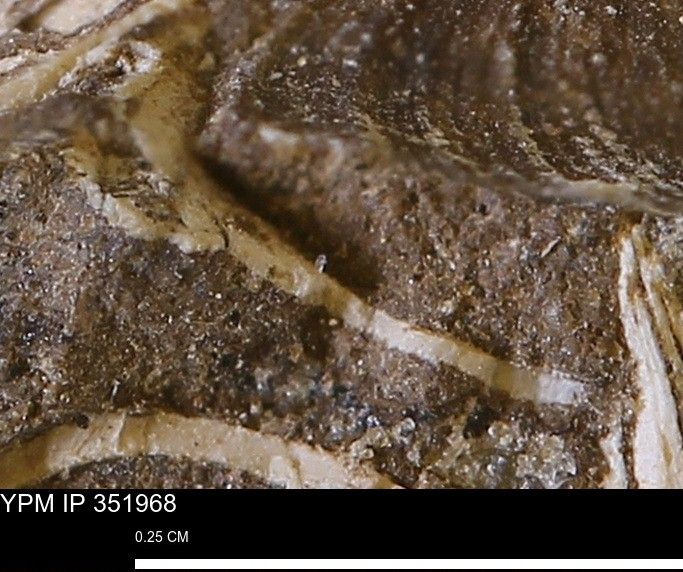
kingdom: Animalia
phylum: Mollusca
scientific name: Mollusca
